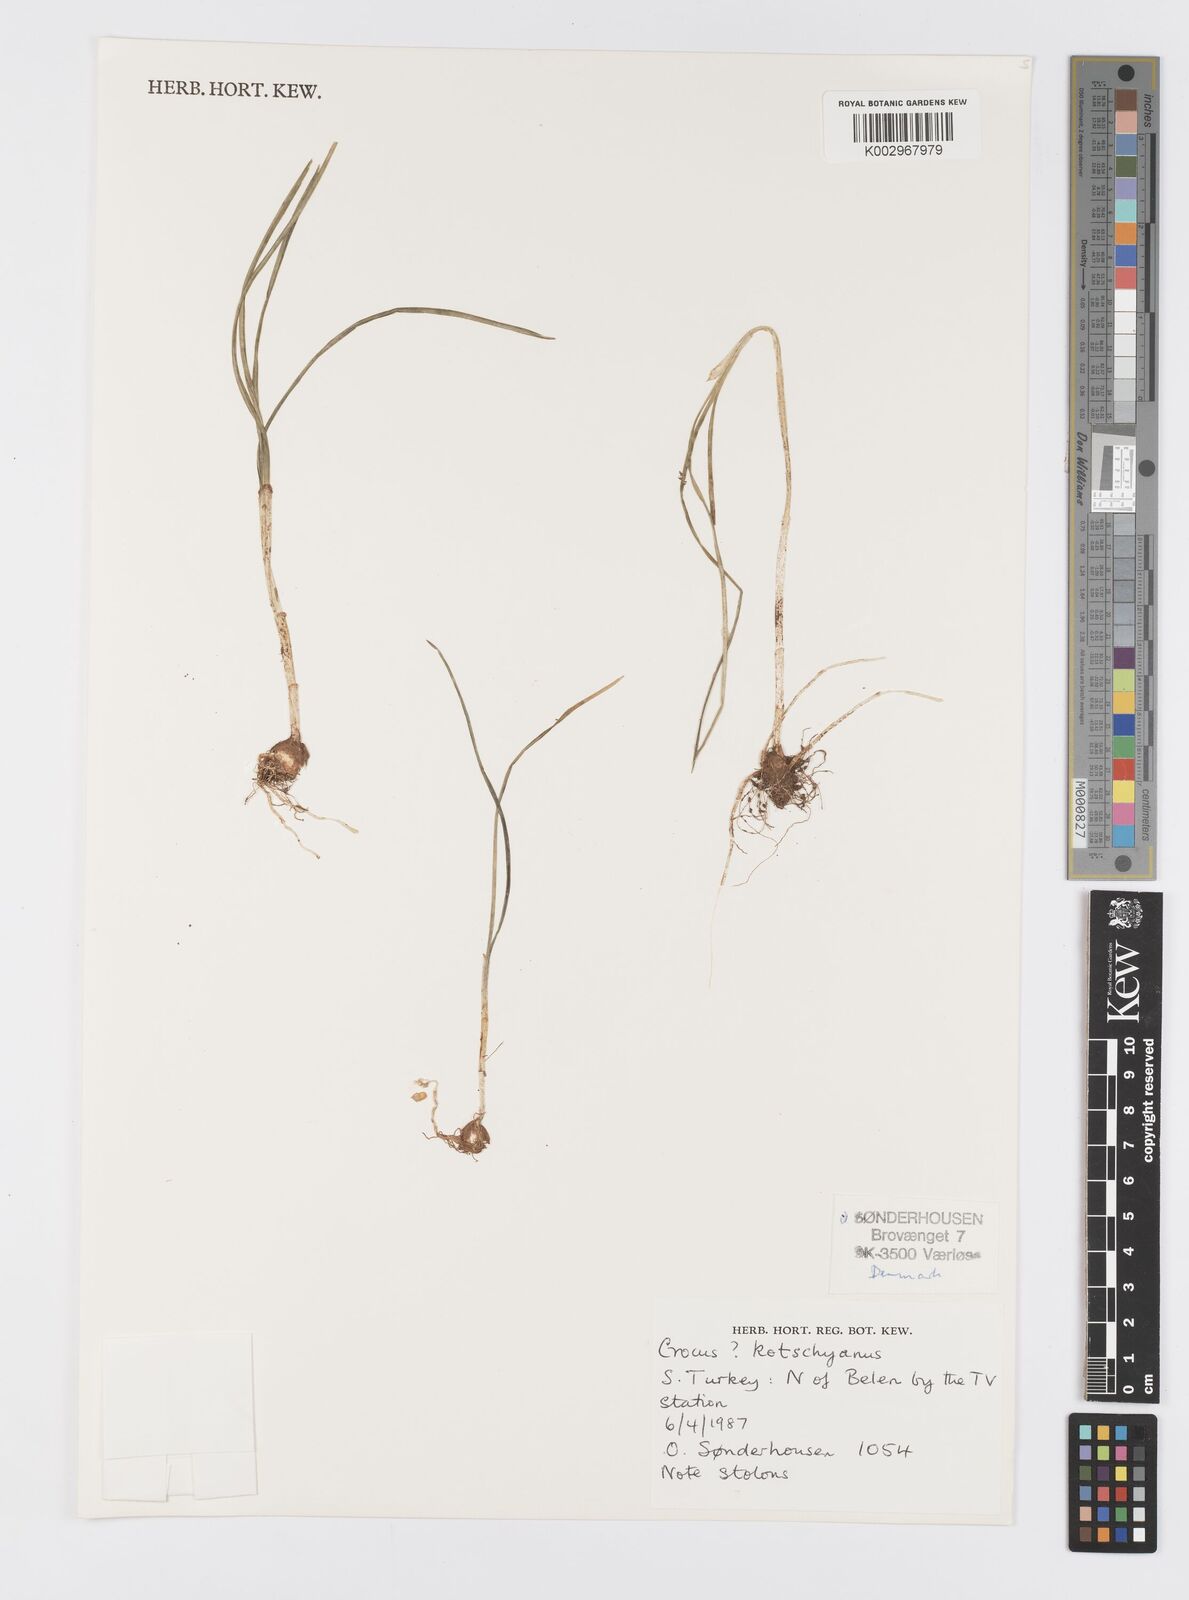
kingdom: Plantae
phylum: Tracheophyta
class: Liliopsida
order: Asparagales
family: Iridaceae
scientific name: Iridaceae
